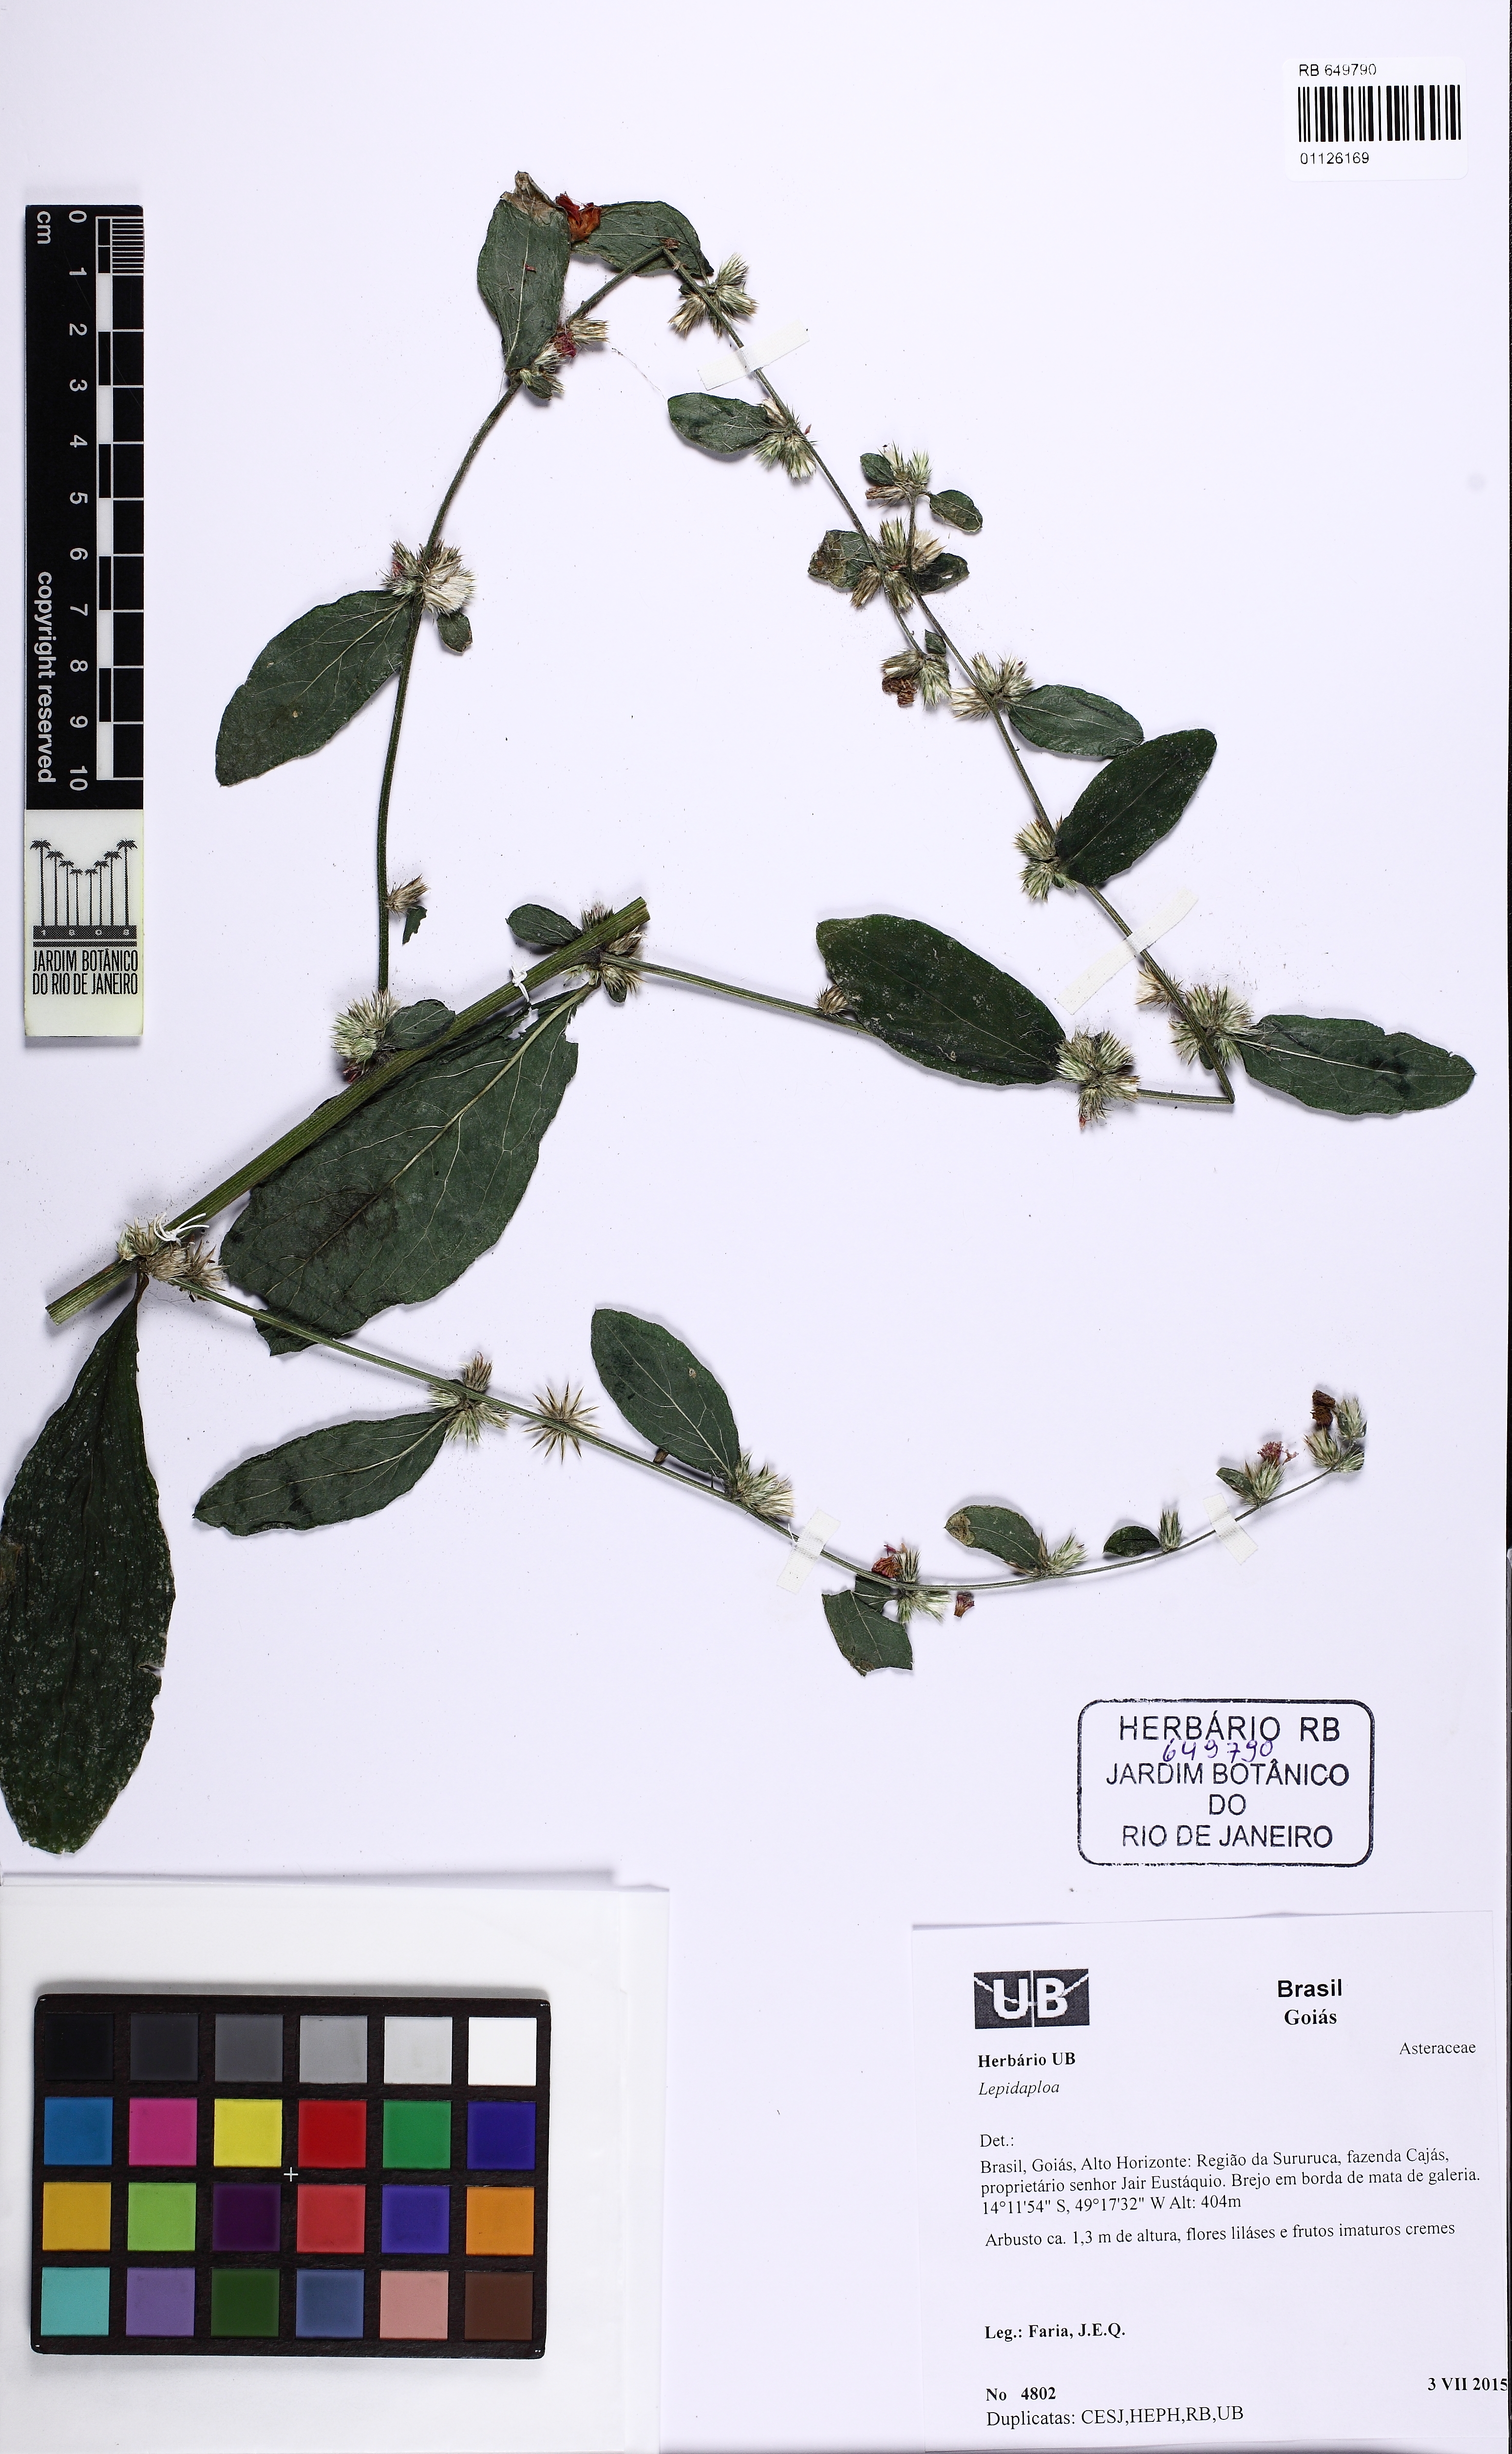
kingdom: Plantae
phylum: Tracheophyta
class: Magnoliopsida
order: Asterales
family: Asteraceae
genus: Lepidaploa
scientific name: Lepidaploa
